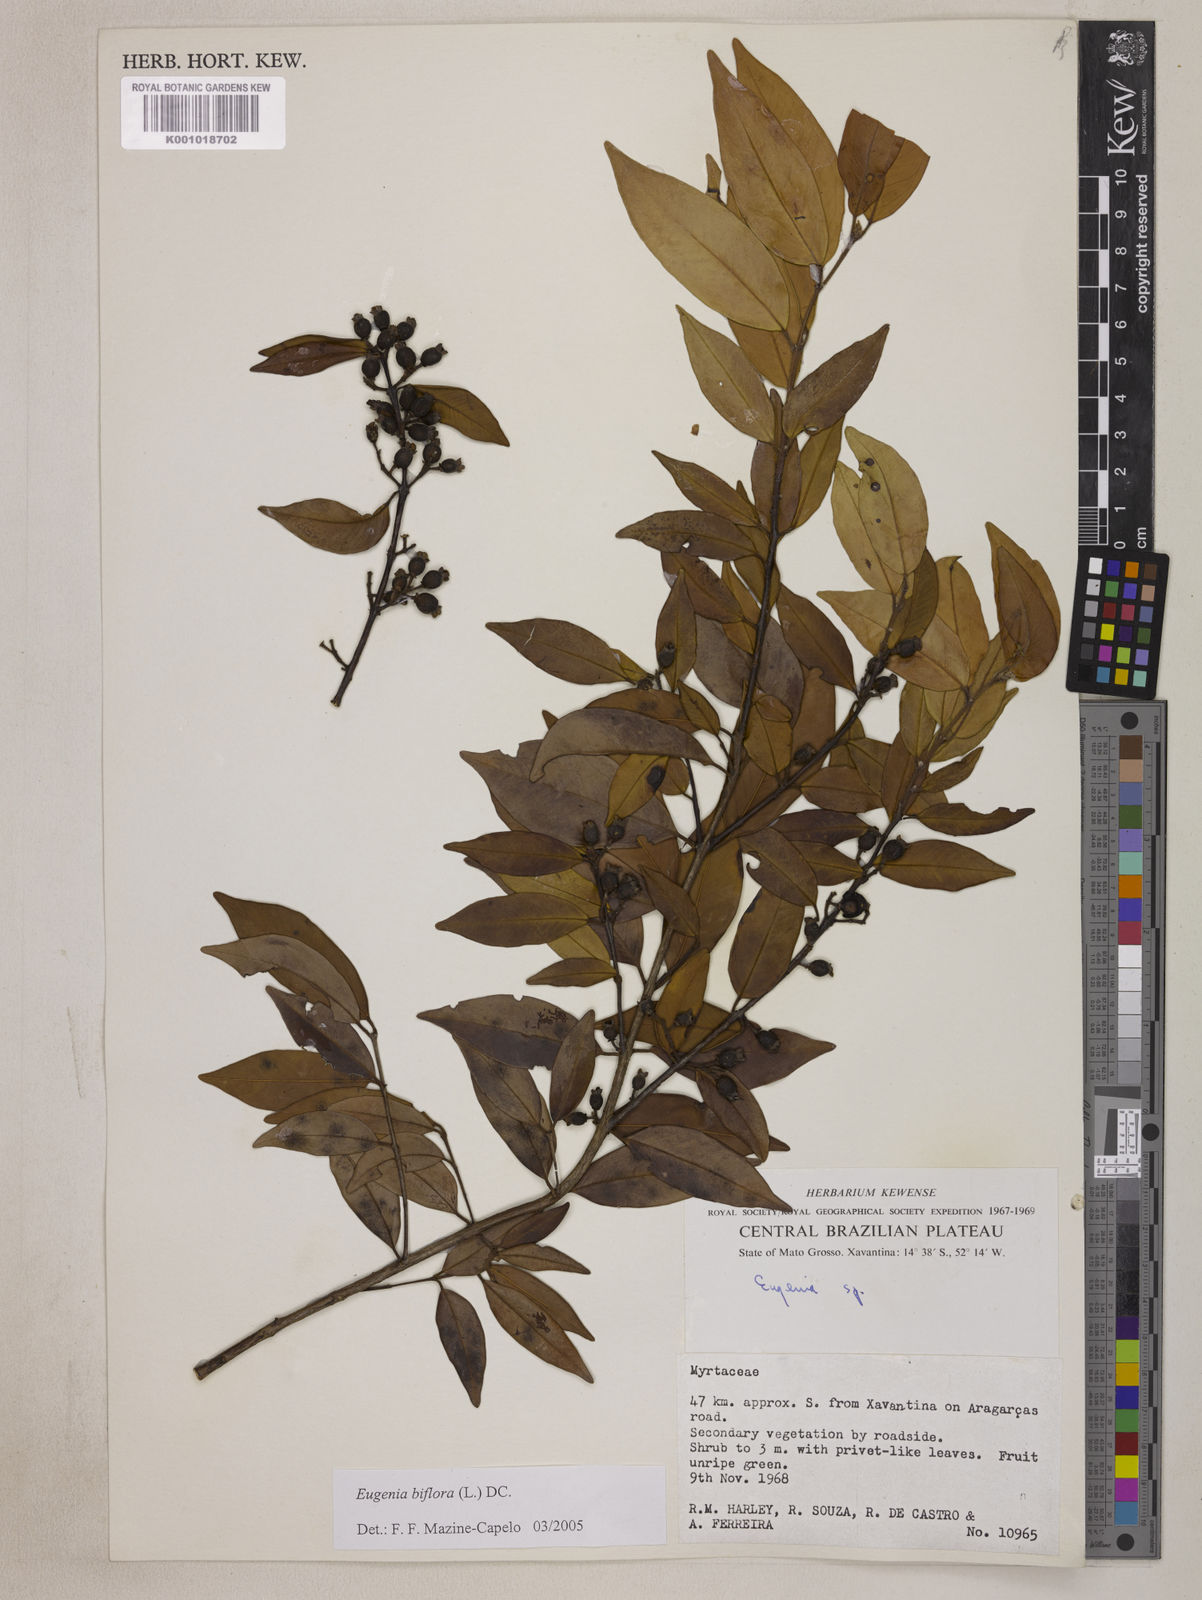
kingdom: Plantae
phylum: Tracheophyta
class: Magnoliopsida
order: Myrtales
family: Myrtaceae
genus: Eugenia
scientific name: Eugenia biflora
